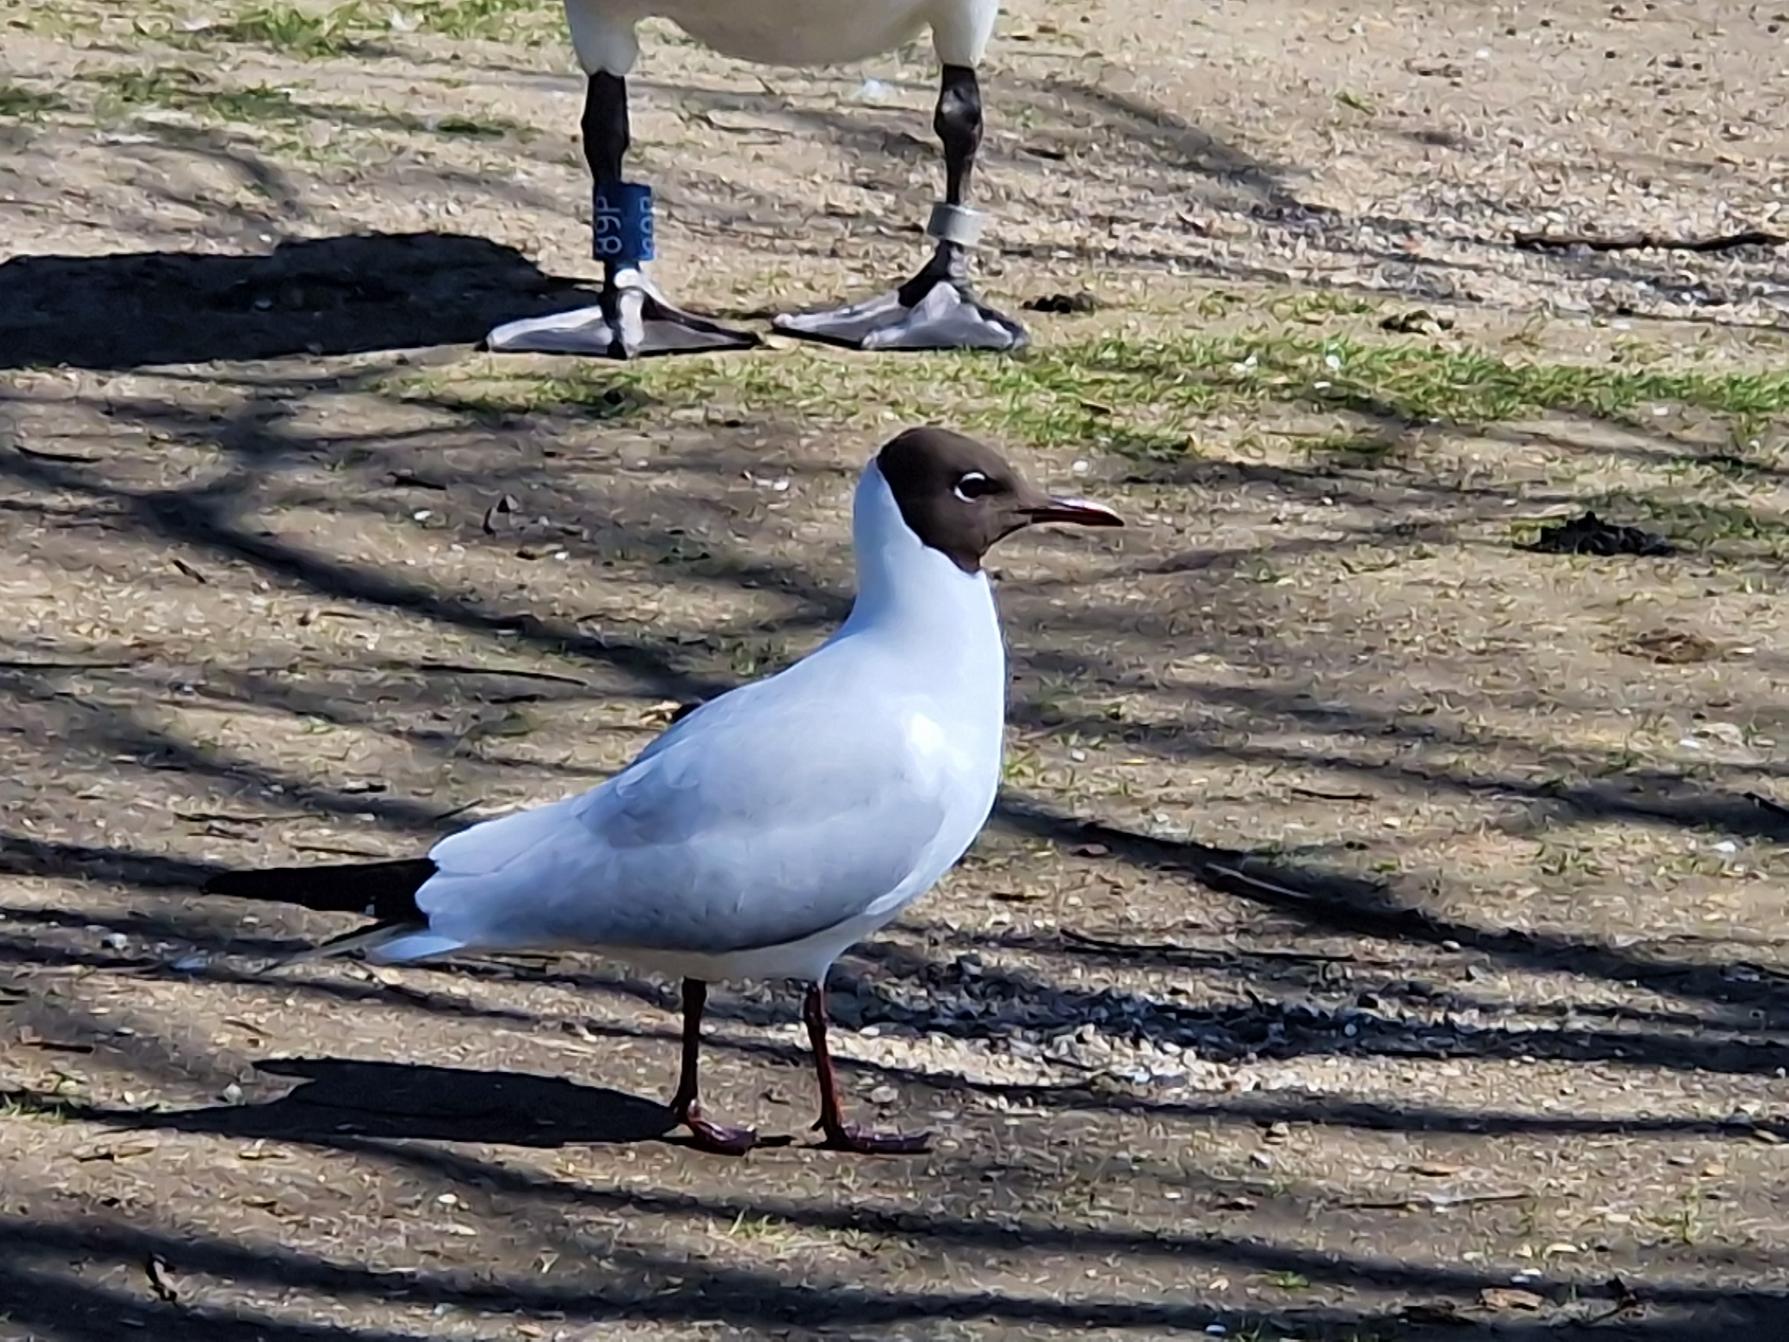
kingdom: Animalia
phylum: Chordata
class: Aves
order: Charadriiformes
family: Laridae
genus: Chroicocephalus
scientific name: Chroicocephalus ridibundus
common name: Hættemåge
